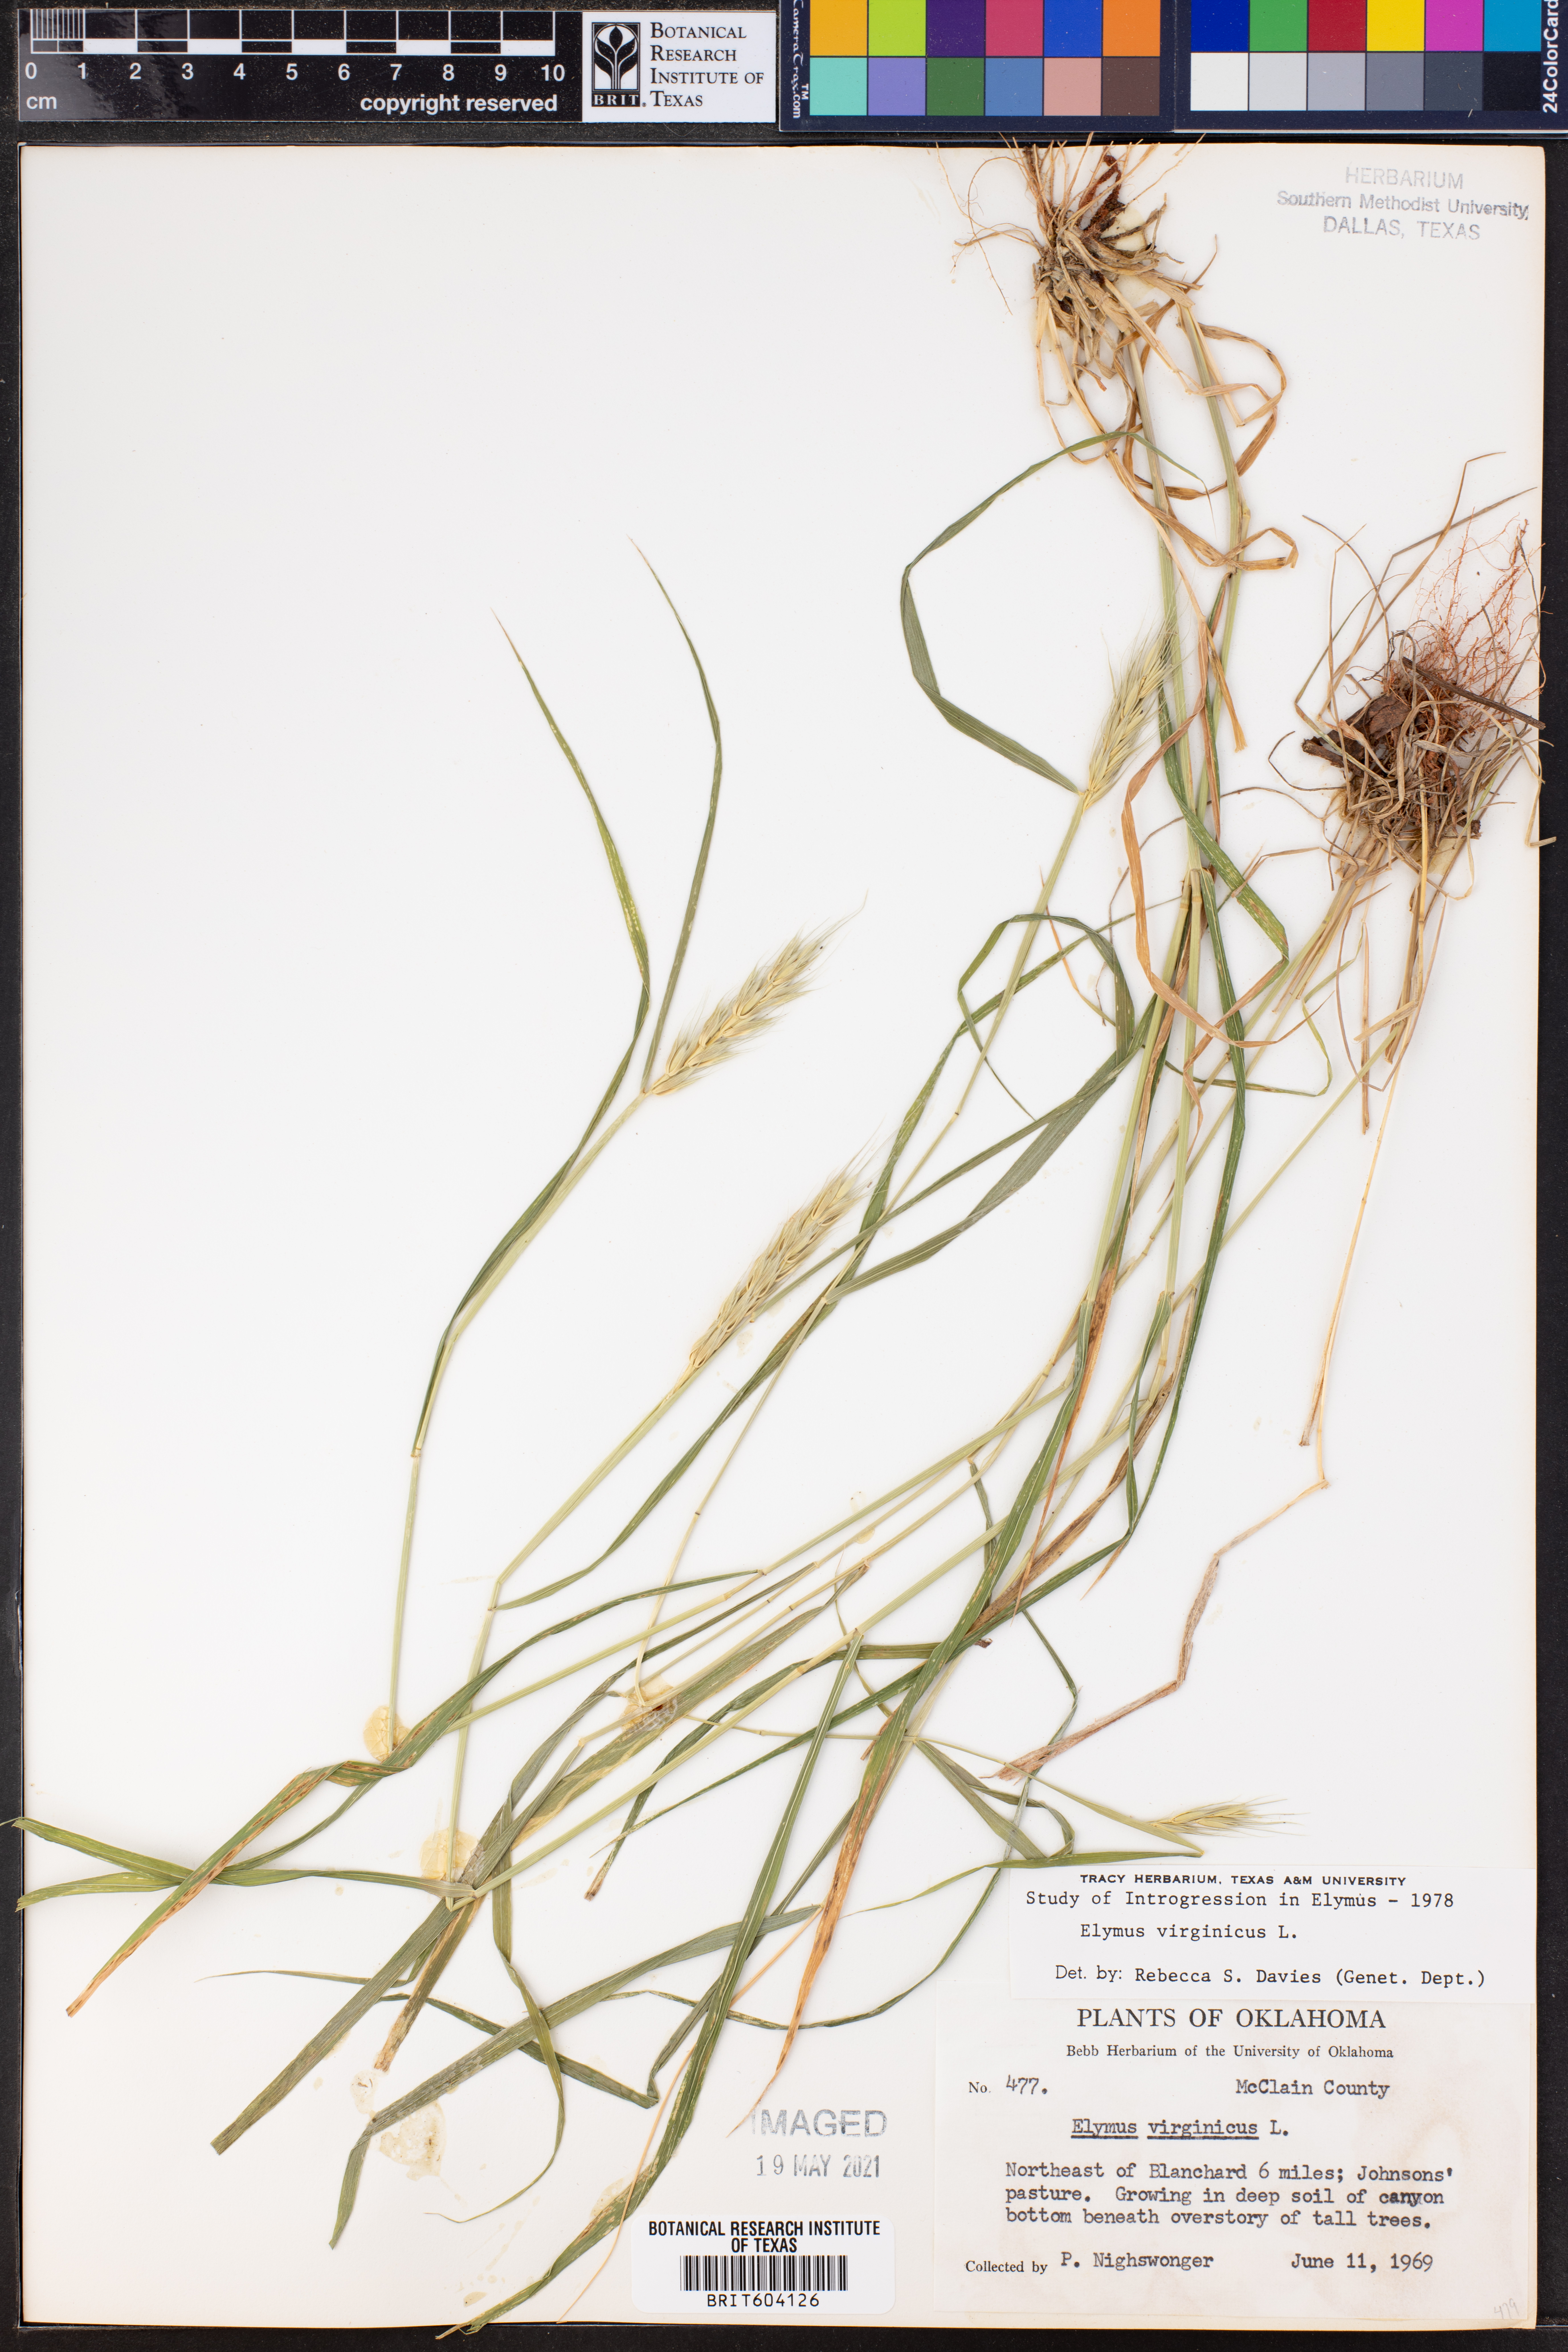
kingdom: Plantae
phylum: Tracheophyta
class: Liliopsida
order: Poales
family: Poaceae
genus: Elymus
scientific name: Elymus virginicus
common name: Common eastern wildrye
